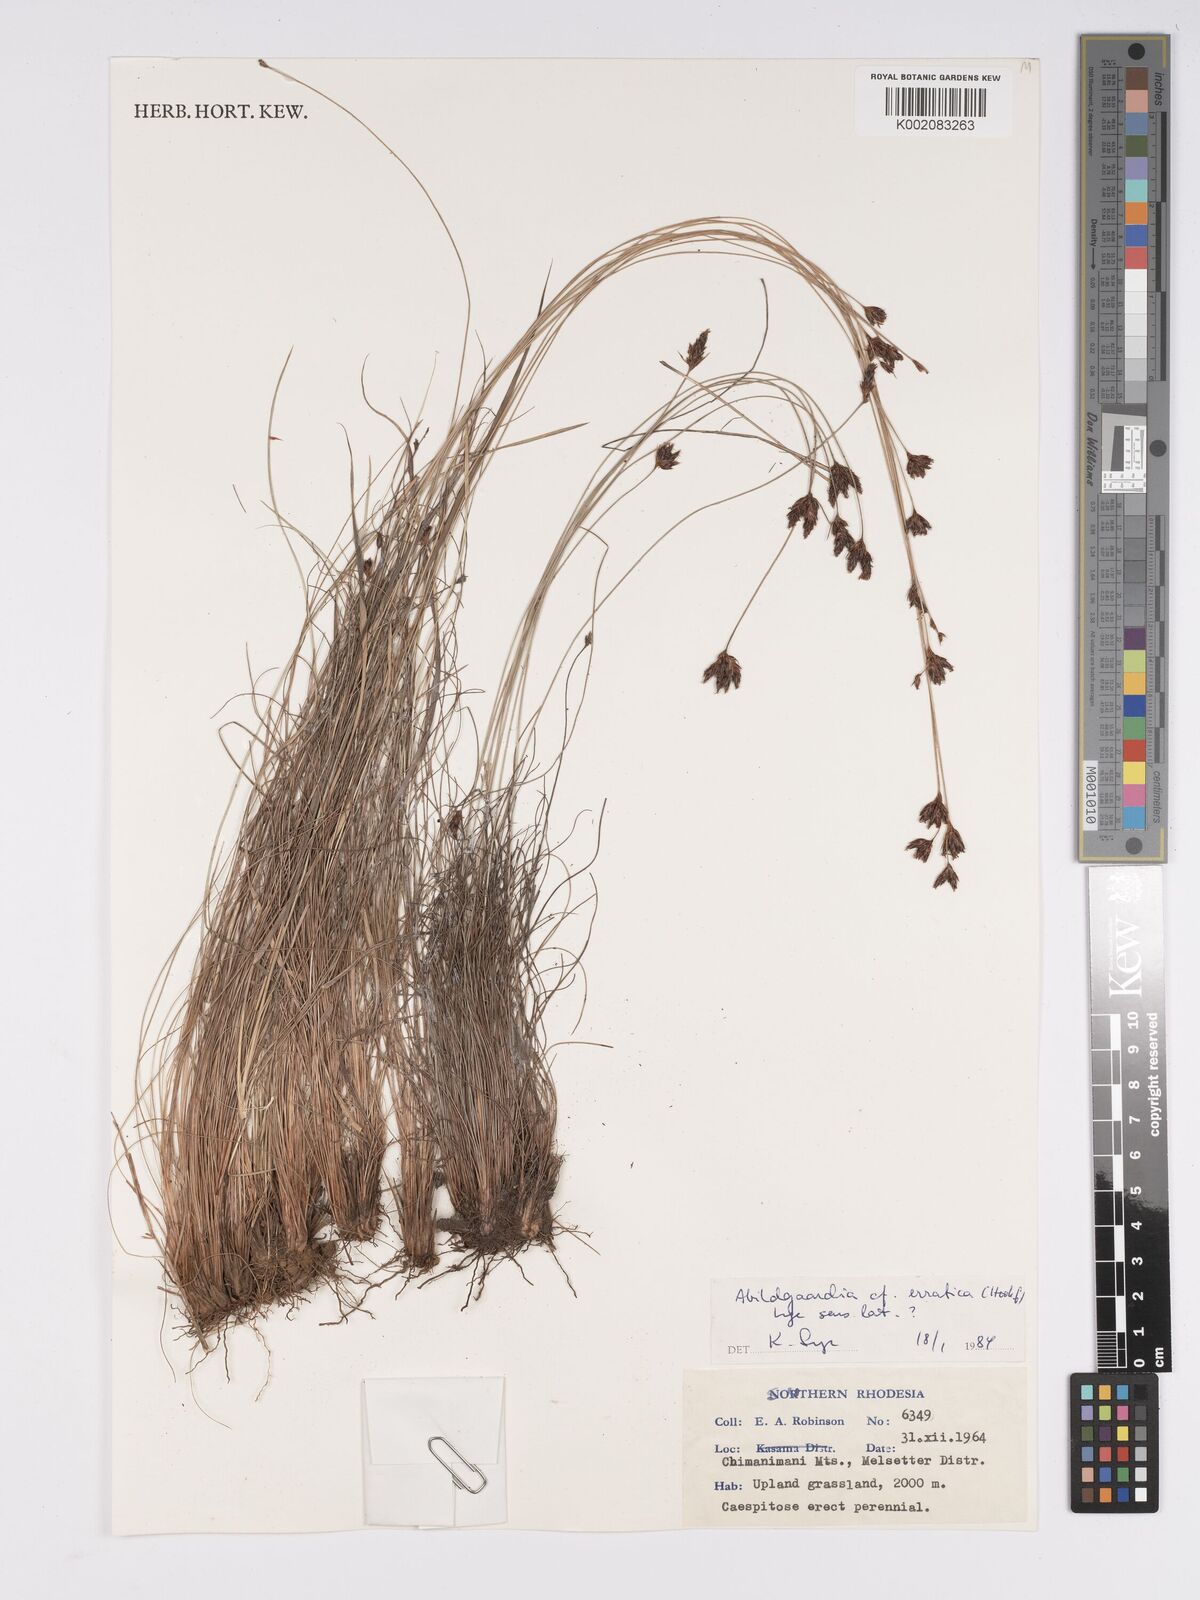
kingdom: Plantae
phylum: Tracheophyta
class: Liliopsida
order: Poales
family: Cyperaceae
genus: Bulbostylis
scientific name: Bulbostylis schoenoides
